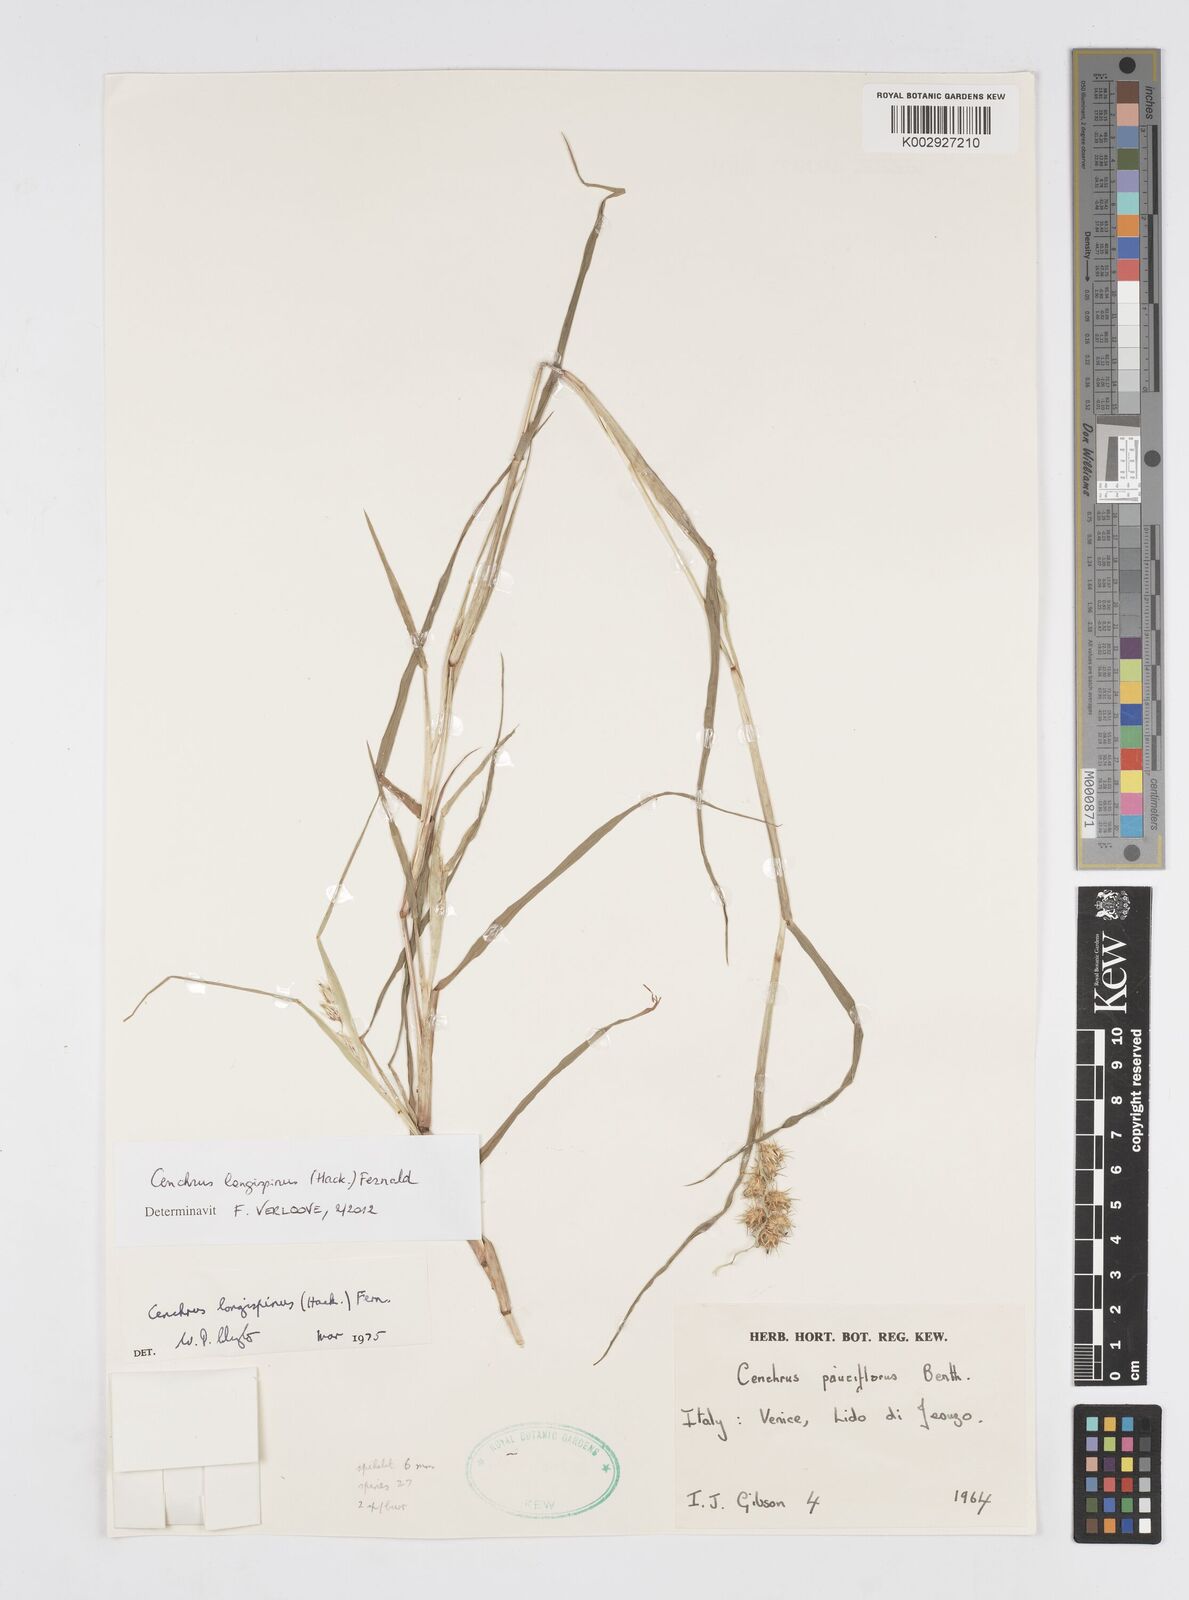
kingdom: Plantae
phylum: Tracheophyta
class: Liliopsida
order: Poales
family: Poaceae
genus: Cenchrus
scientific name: Cenchrus longispinus
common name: Mat sandbur
